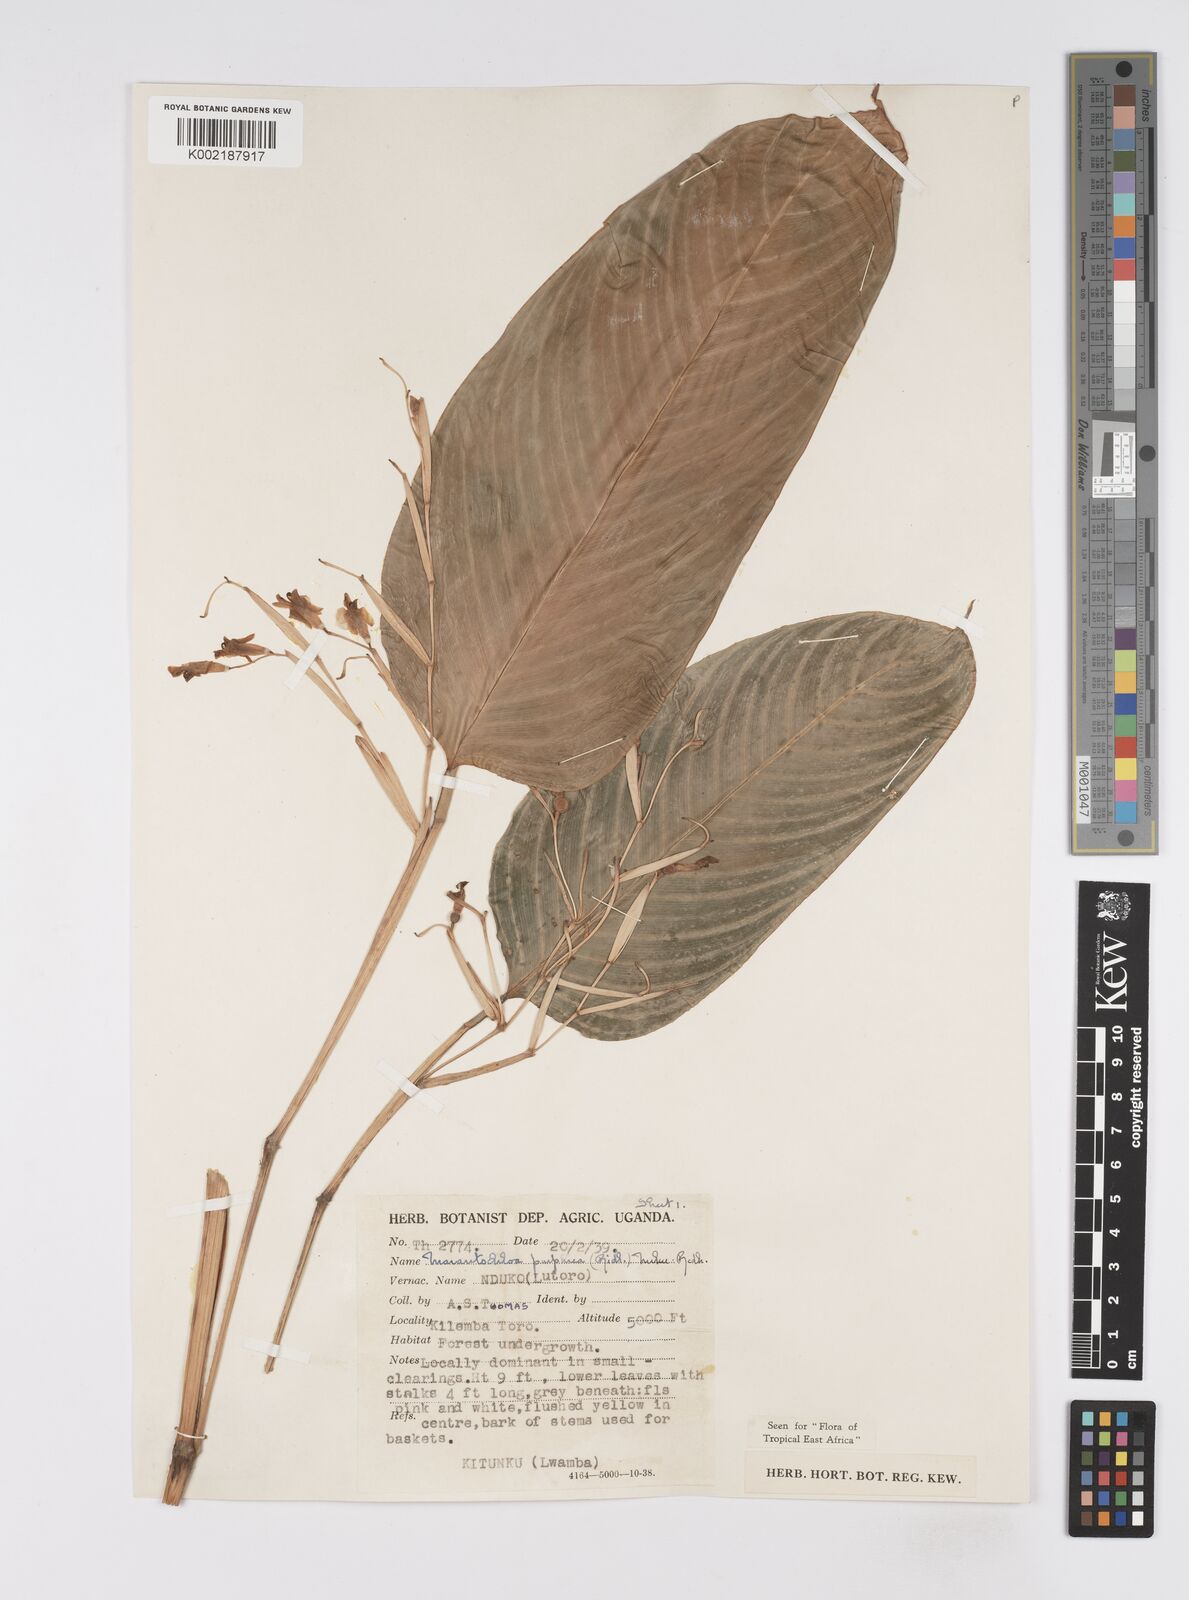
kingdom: Plantae
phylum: Tracheophyta
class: Liliopsida
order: Zingiberales
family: Marantaceae
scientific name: Marantaceae
